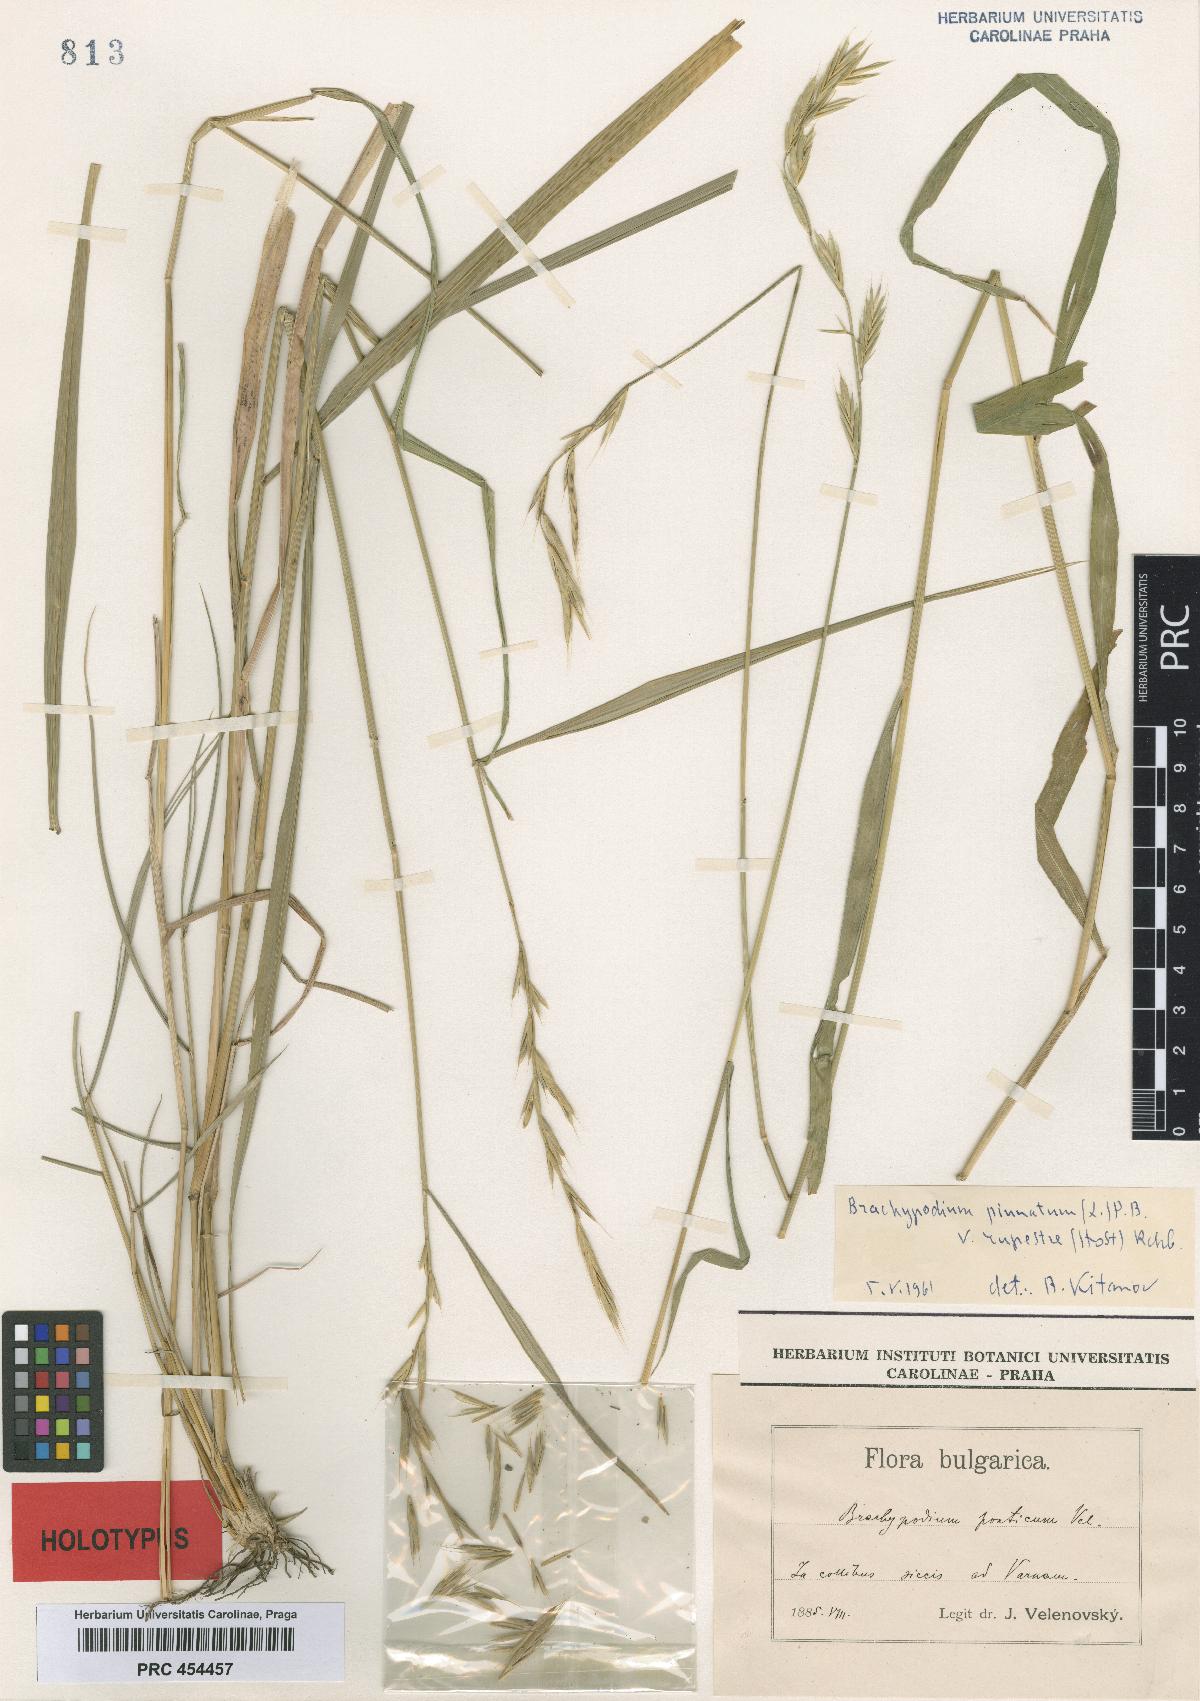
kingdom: Plantae
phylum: Tracheophyta
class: Liliopsida
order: Poales
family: Poaceae
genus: Brachypodium
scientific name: Brachypodium pringlei
